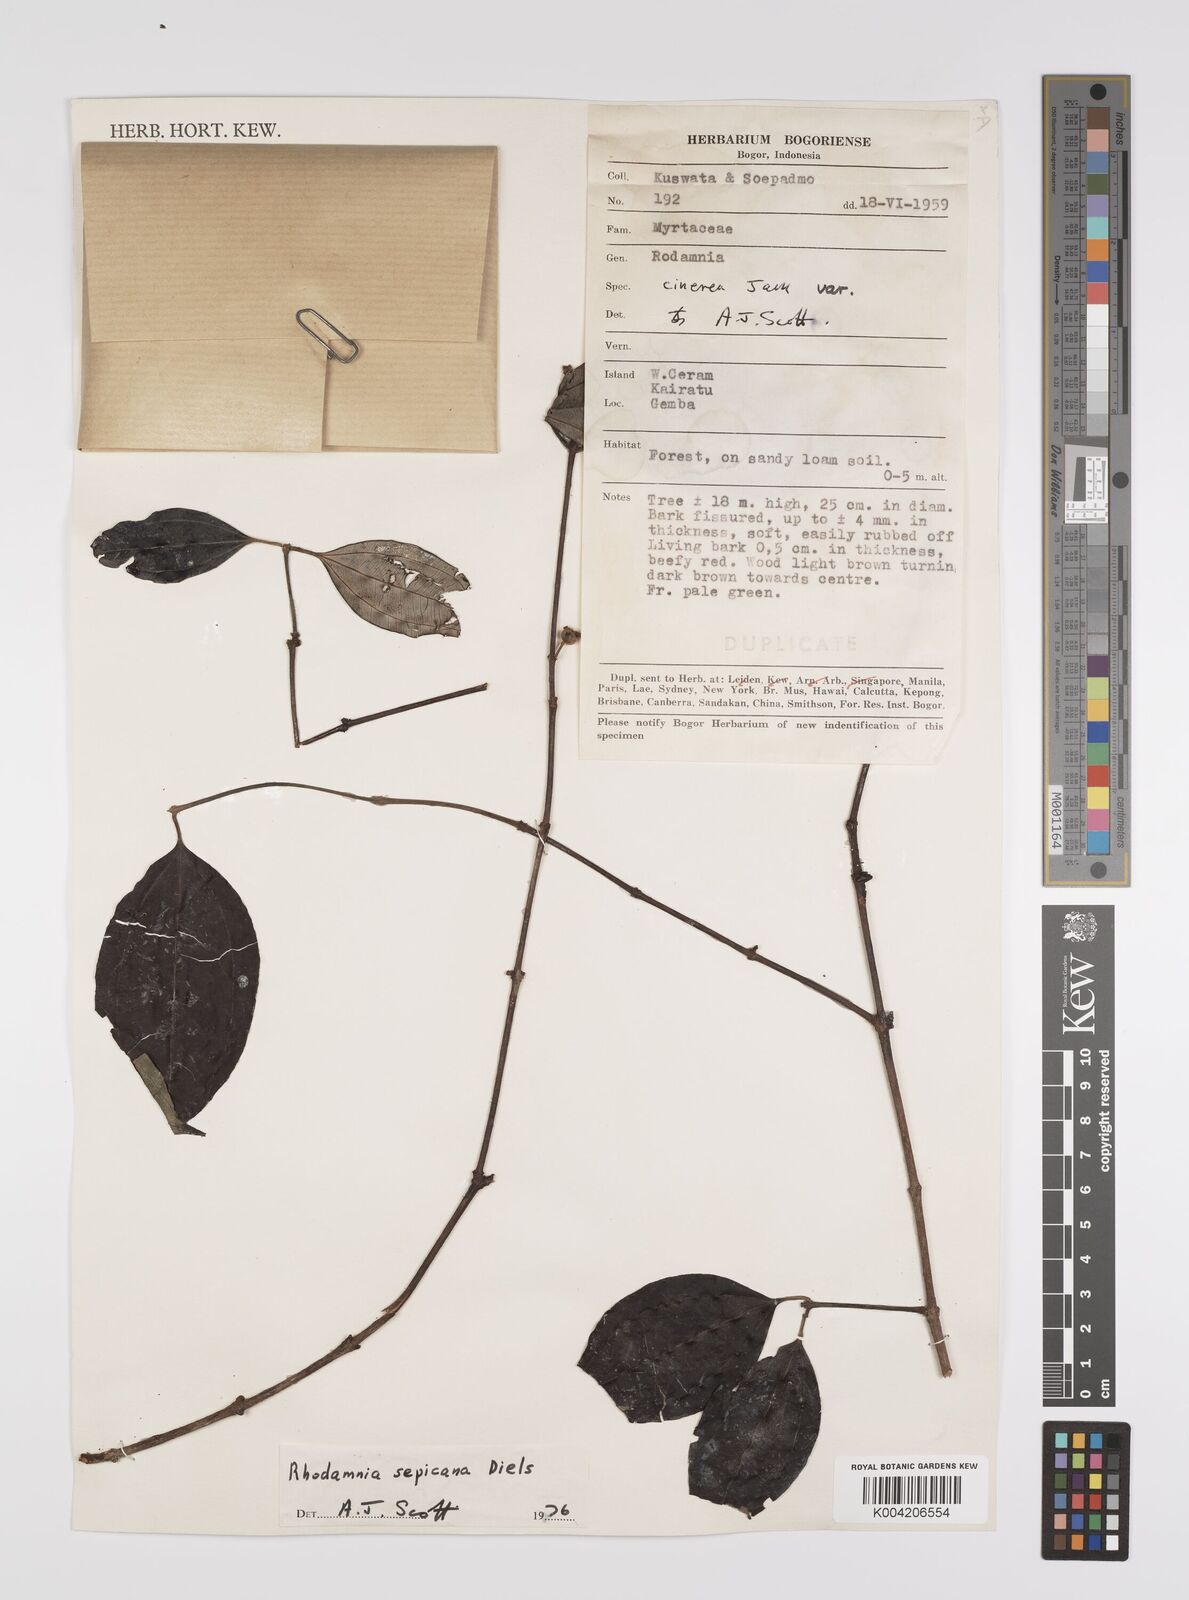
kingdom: Plantae
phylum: Tracheophyta
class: Magnoliopsida
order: Myrtales
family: Myrtaceae
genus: Rhodamnia
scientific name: Rhodamnia sepicana
